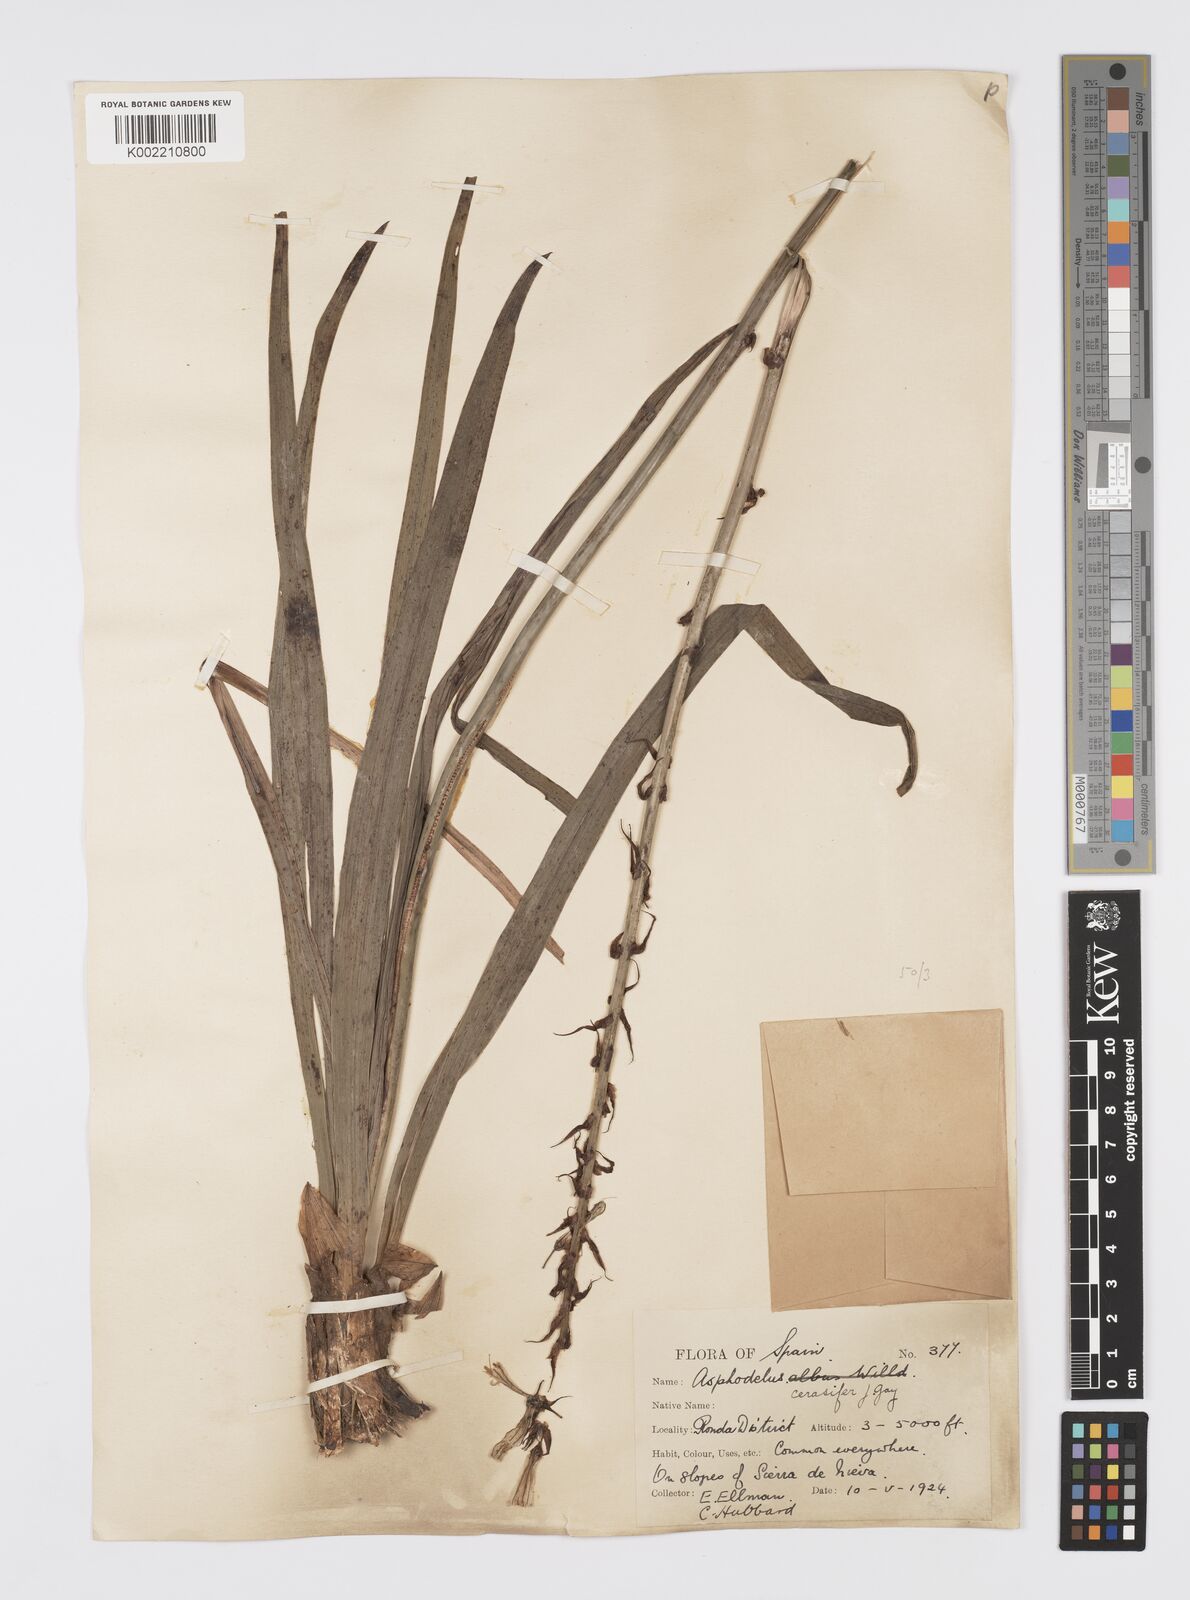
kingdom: Plantae
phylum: Tracheophyta
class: Liliopsida
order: Asparagales
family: Asphodelaceae
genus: Asphodelus
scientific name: Asphodelus cerasifer
